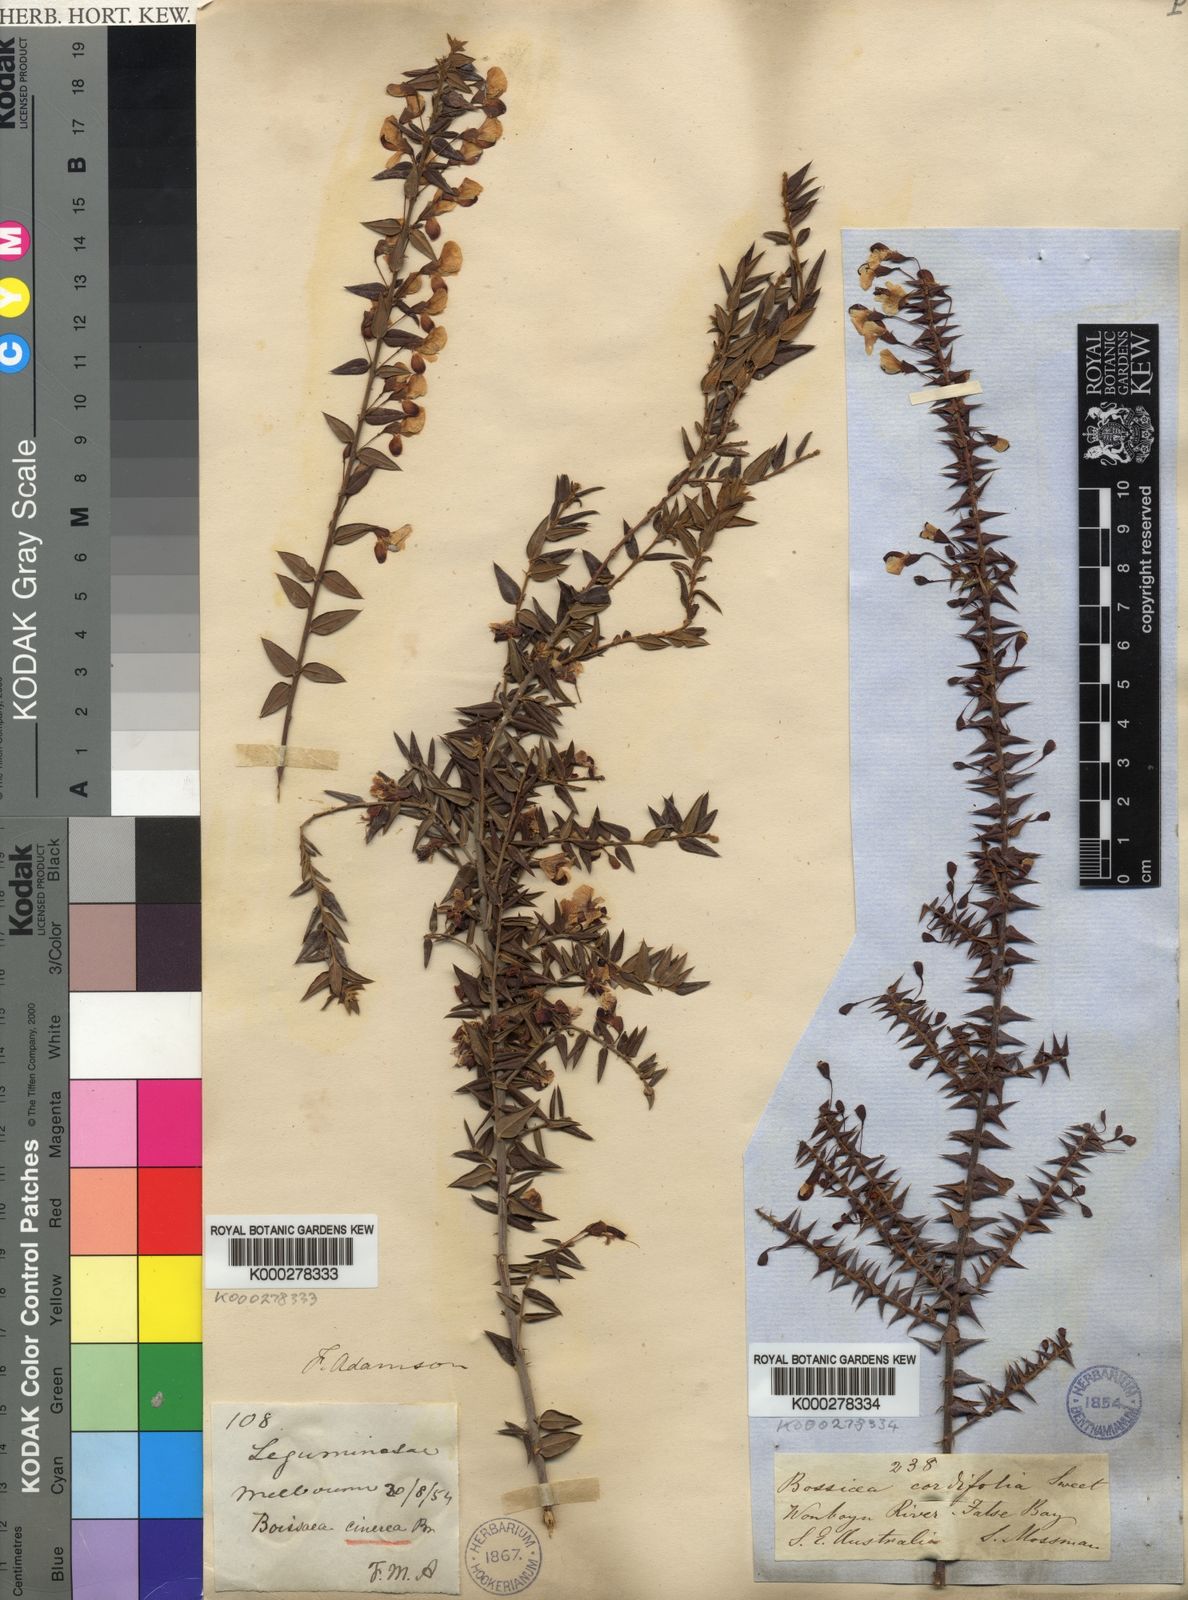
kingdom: Plantae
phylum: Tracheophyta
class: Magnoliopsida
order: Fabales
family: Fabaceae
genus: Bossiaea
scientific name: Bossiaea cinerea
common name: Showy bossiaea
